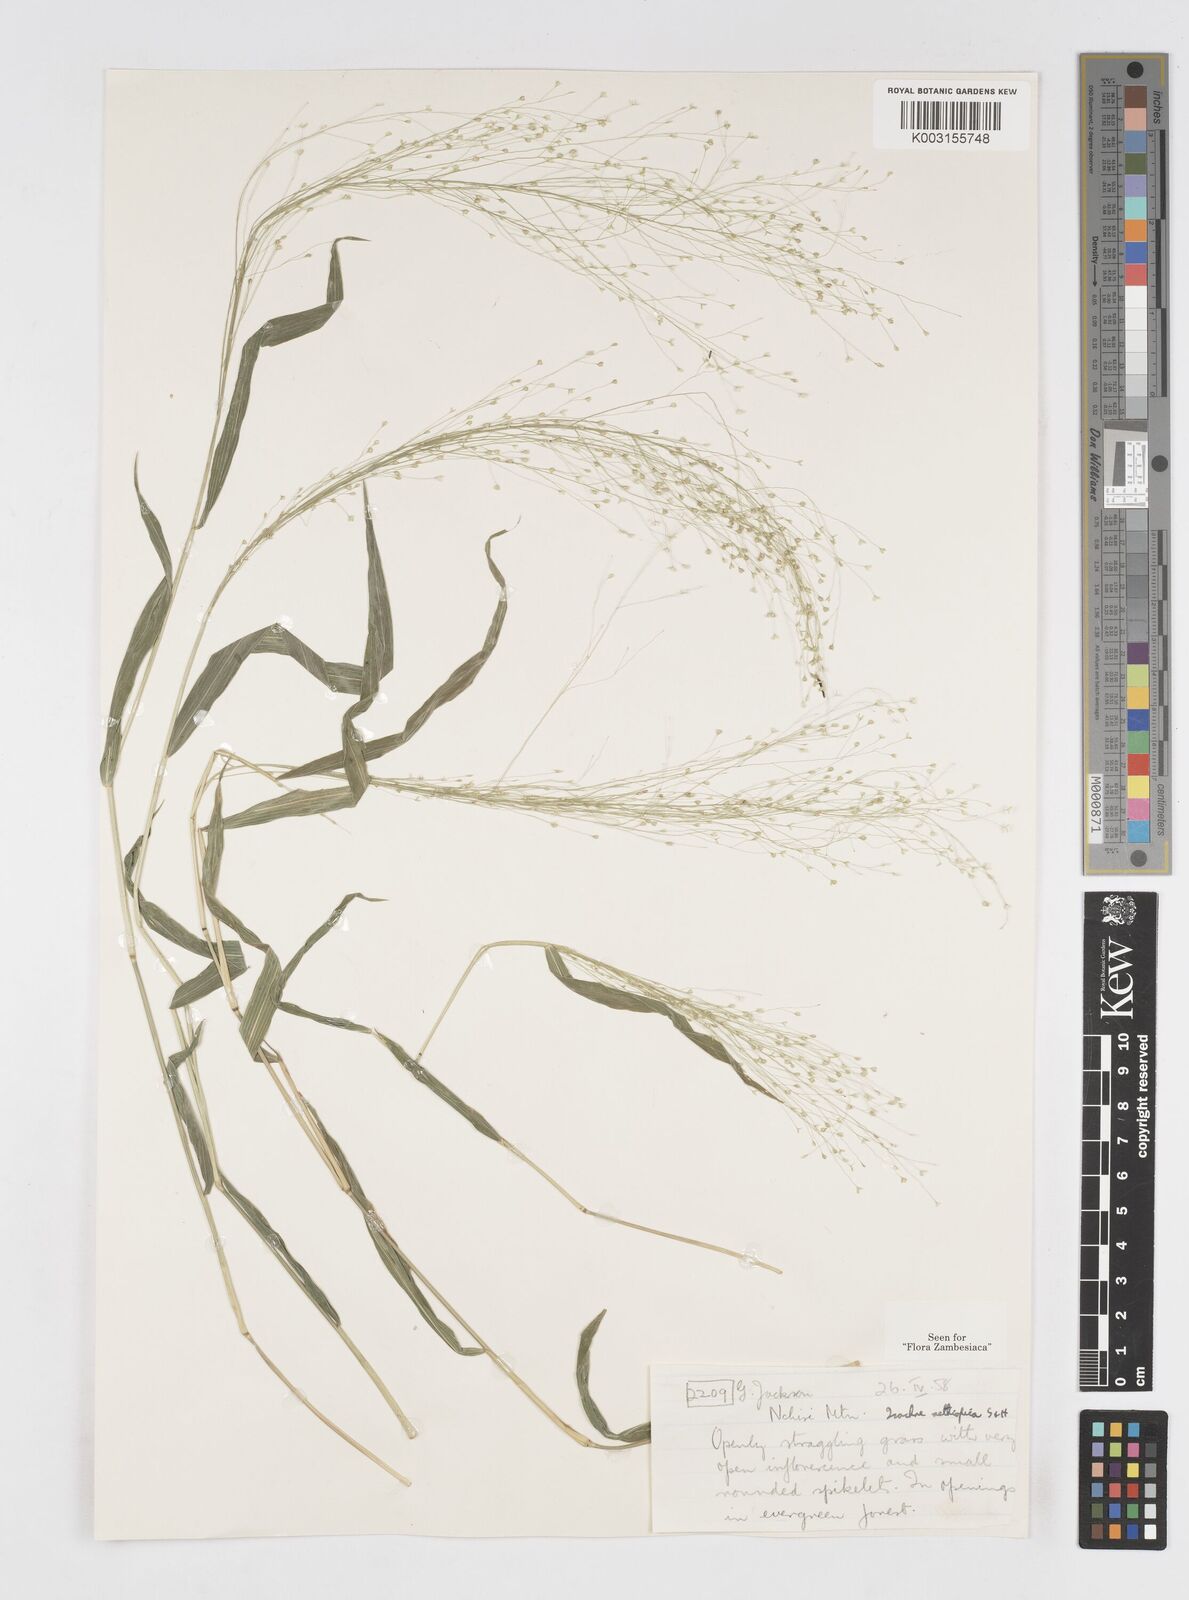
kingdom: Plantae
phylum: Tracheophyta
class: Liliopsida
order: Poales
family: Poaceae
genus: Isachne
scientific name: Isachne mauritiana
